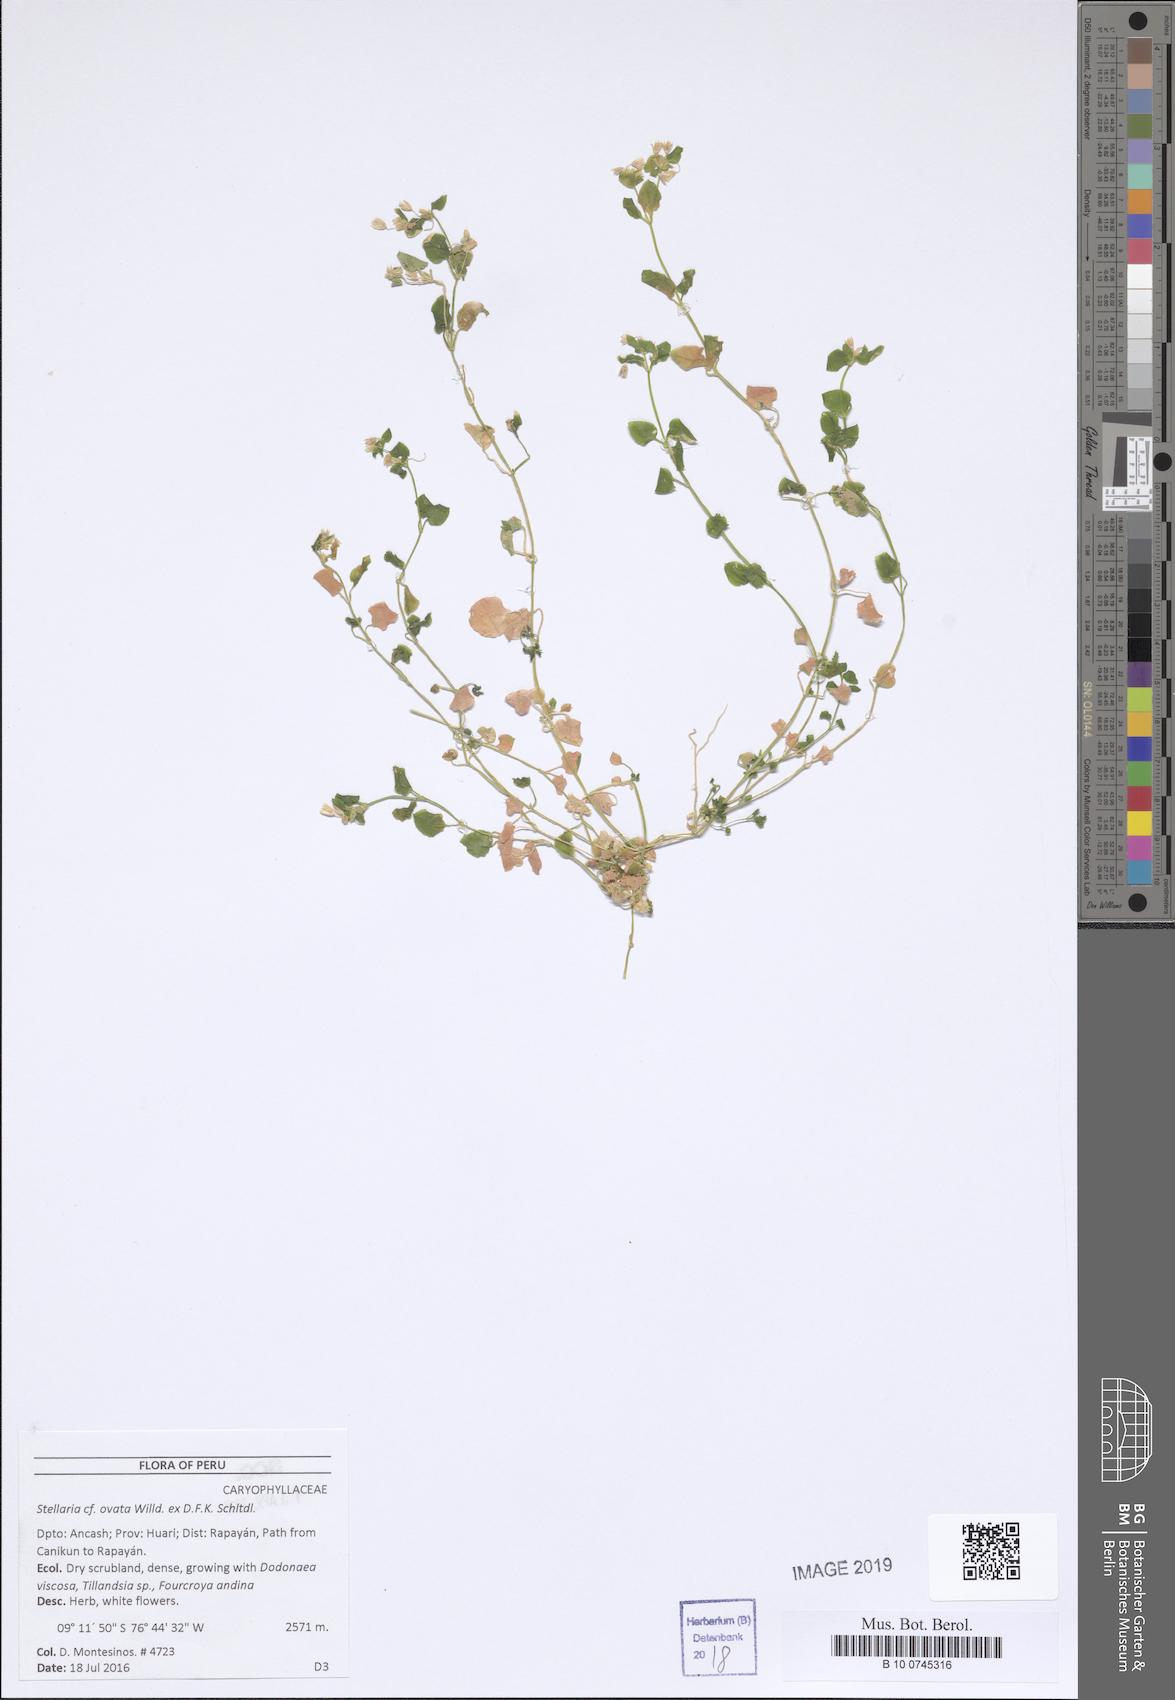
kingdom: Plantae
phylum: Tracheophyta
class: Magnoliopsida
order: Caryophyllales
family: Caryophyllaceae
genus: Stellaria
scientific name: Stellaria ovata
